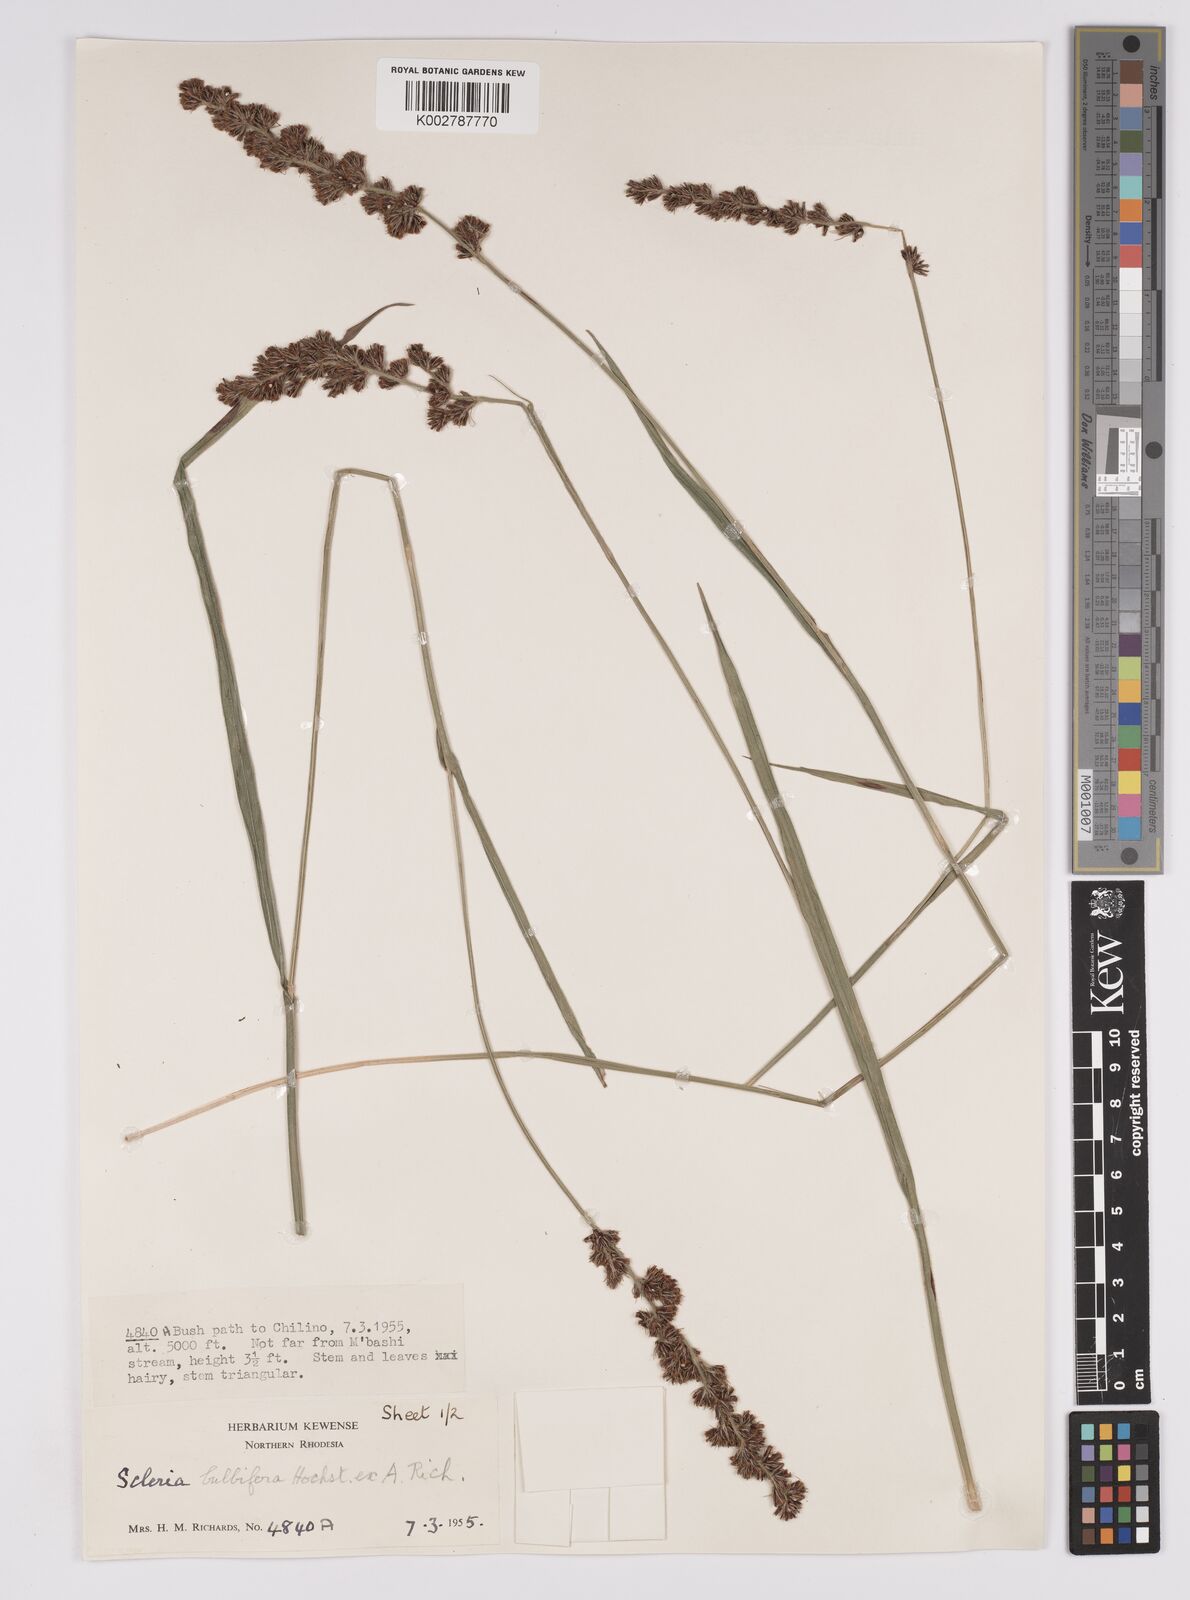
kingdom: Plantae
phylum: Tracheophyta
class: Liliopsida
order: Poales
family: Cyperaceae
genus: Scleria
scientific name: Scleria bulbifera
